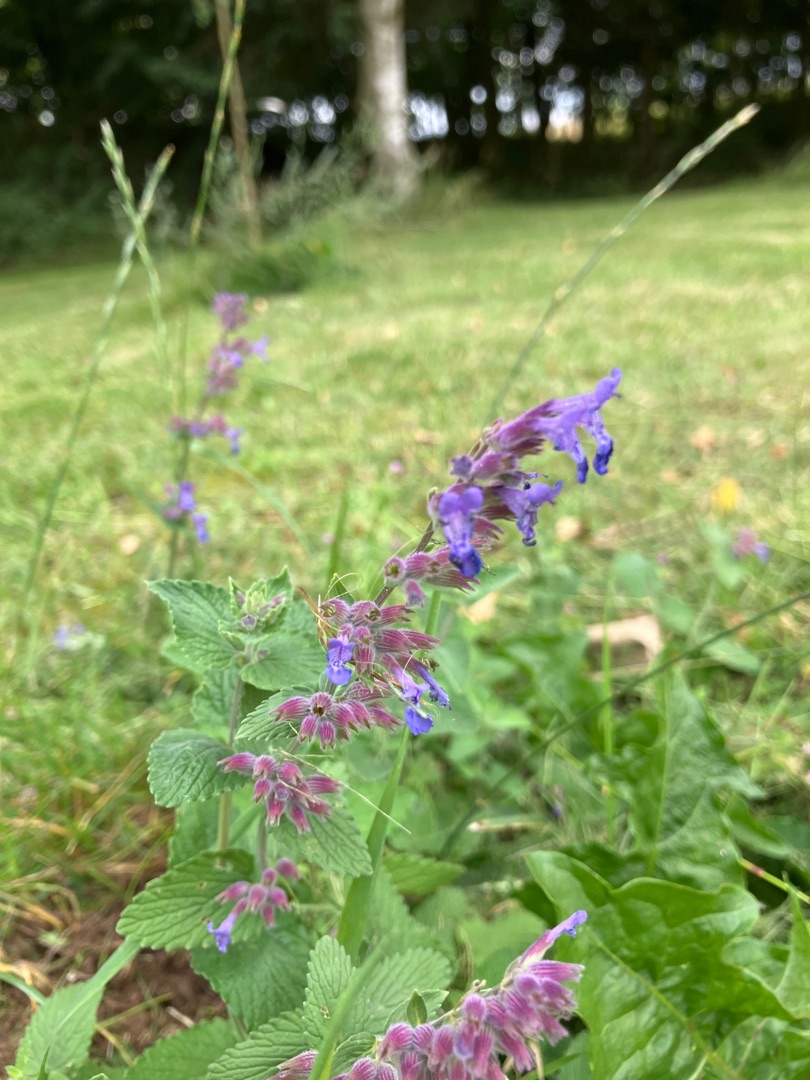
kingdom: Plantae
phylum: Tracheophyta
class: Magnoliopsida
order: Lamiales
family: Lamiaceae
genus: Nepeta
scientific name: Nepeta racemosa
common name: Ægte blåkant
